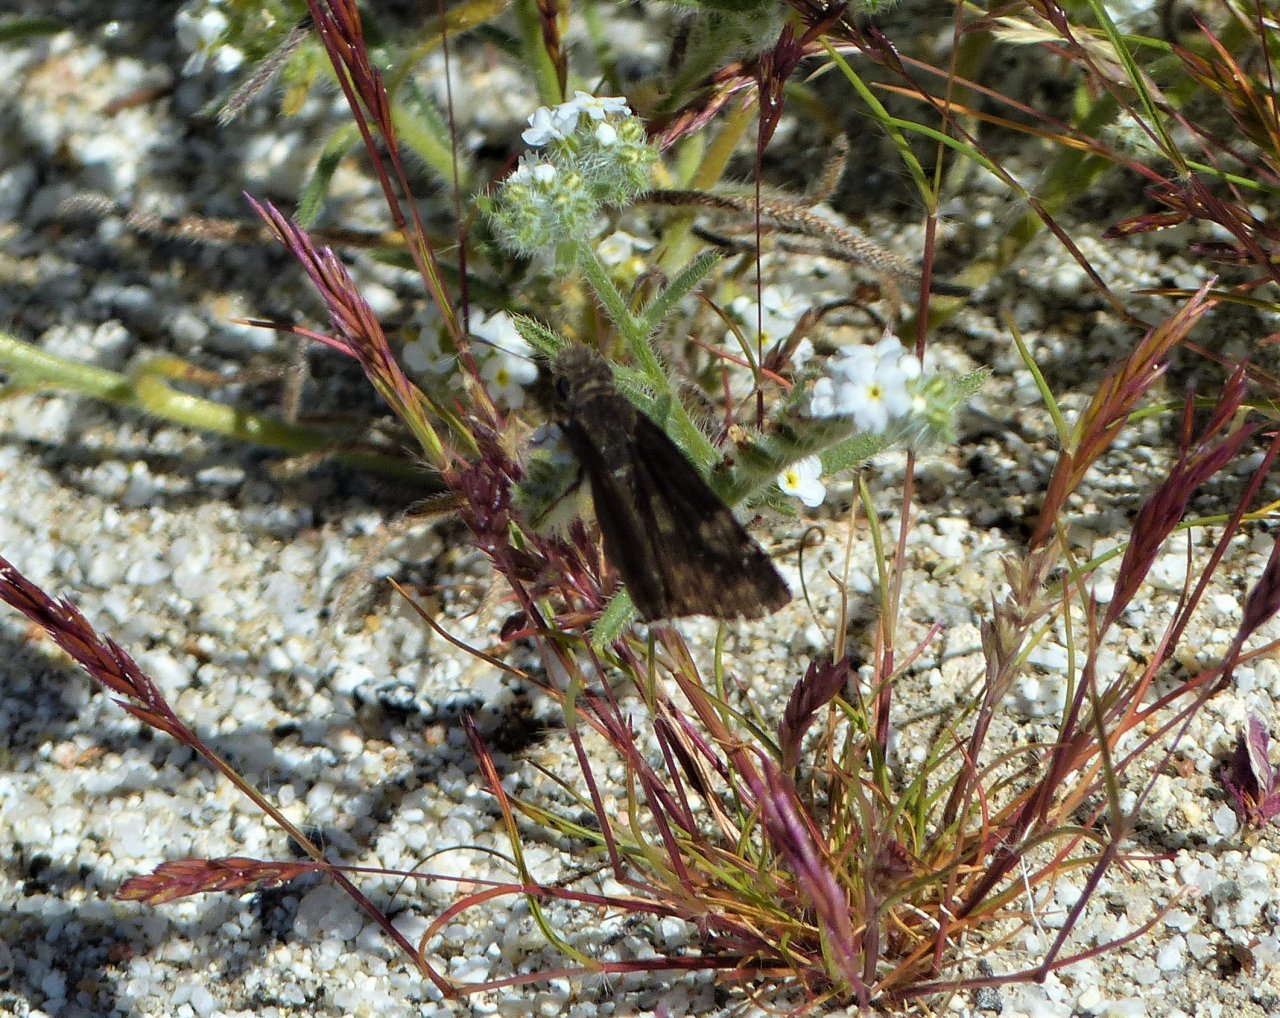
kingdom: Animalia
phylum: Arthropoda
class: Insecta
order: Lepidoptera
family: Hesperiidae
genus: Erynnis
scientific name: Erynnis pacuvius
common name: Pacuvius Duskywing
